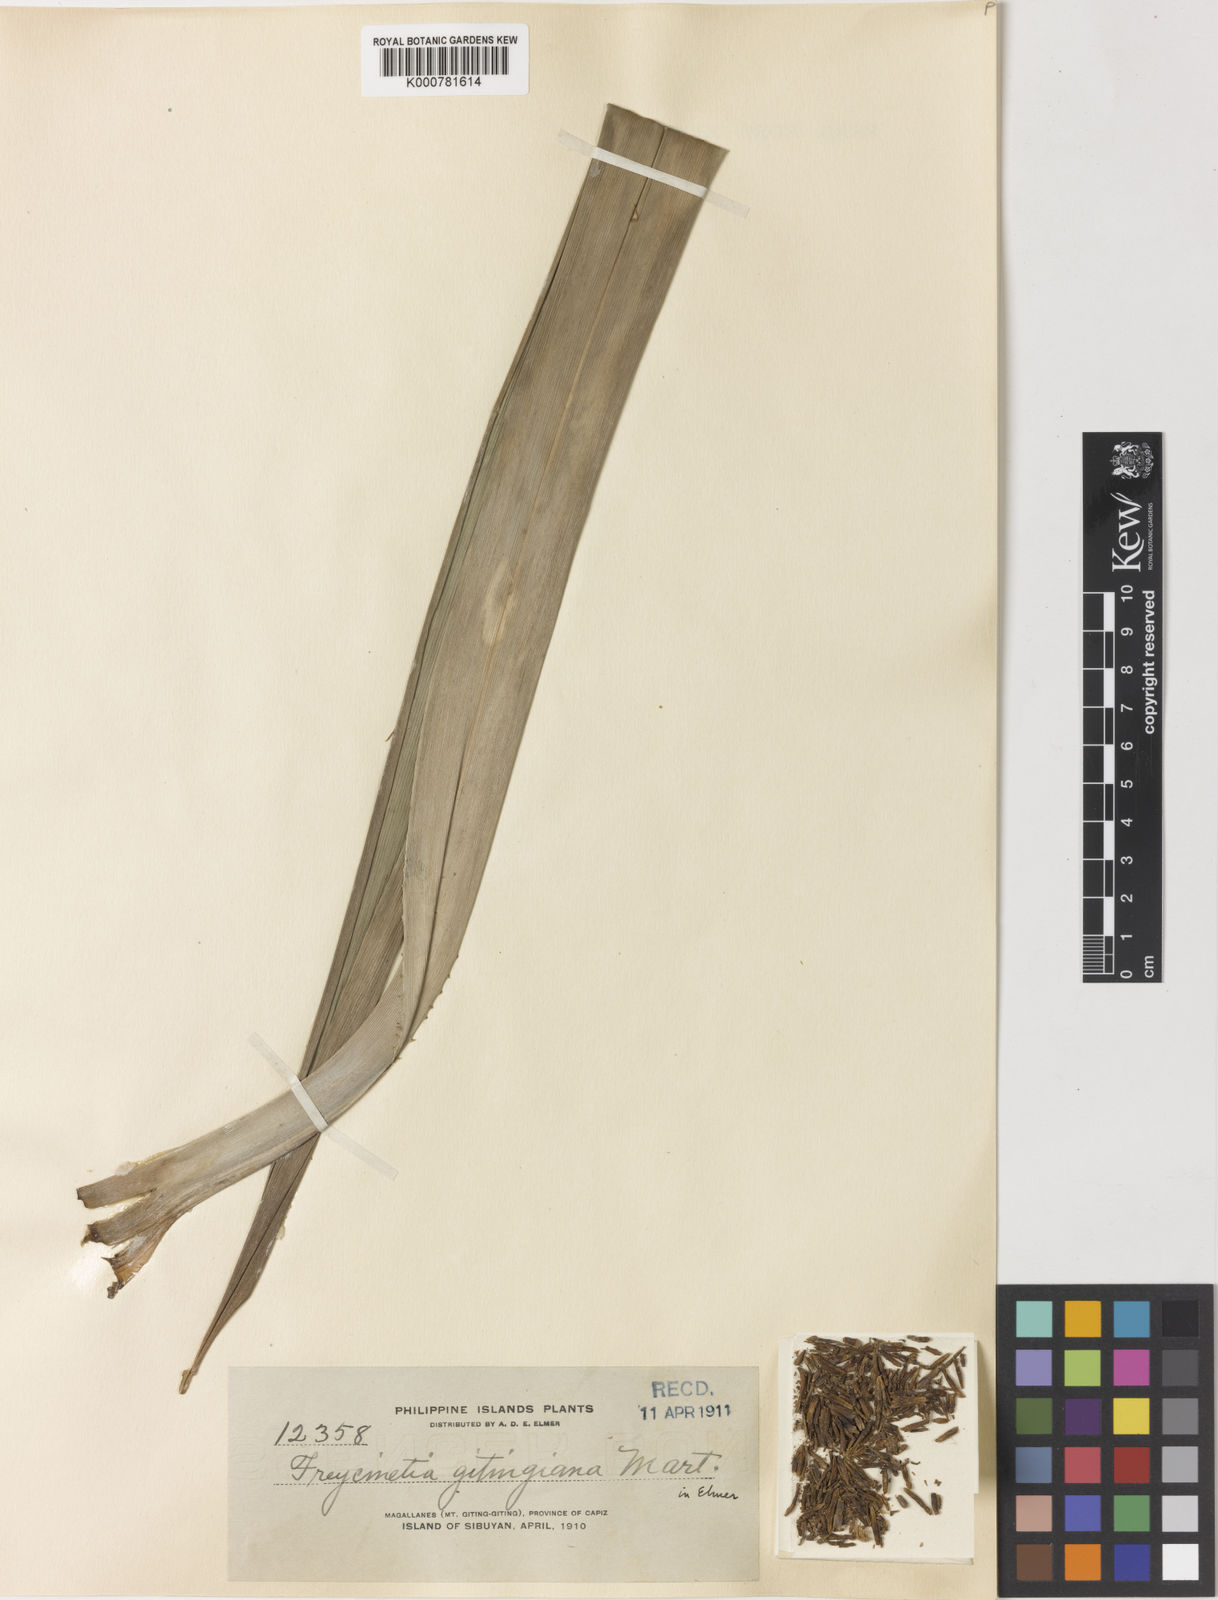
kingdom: Plantae
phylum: Tracheophyta
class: Liliopsida
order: Pandanales
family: Pandanaceae
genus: Freycinetia
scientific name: Freycinetia gitingiana
